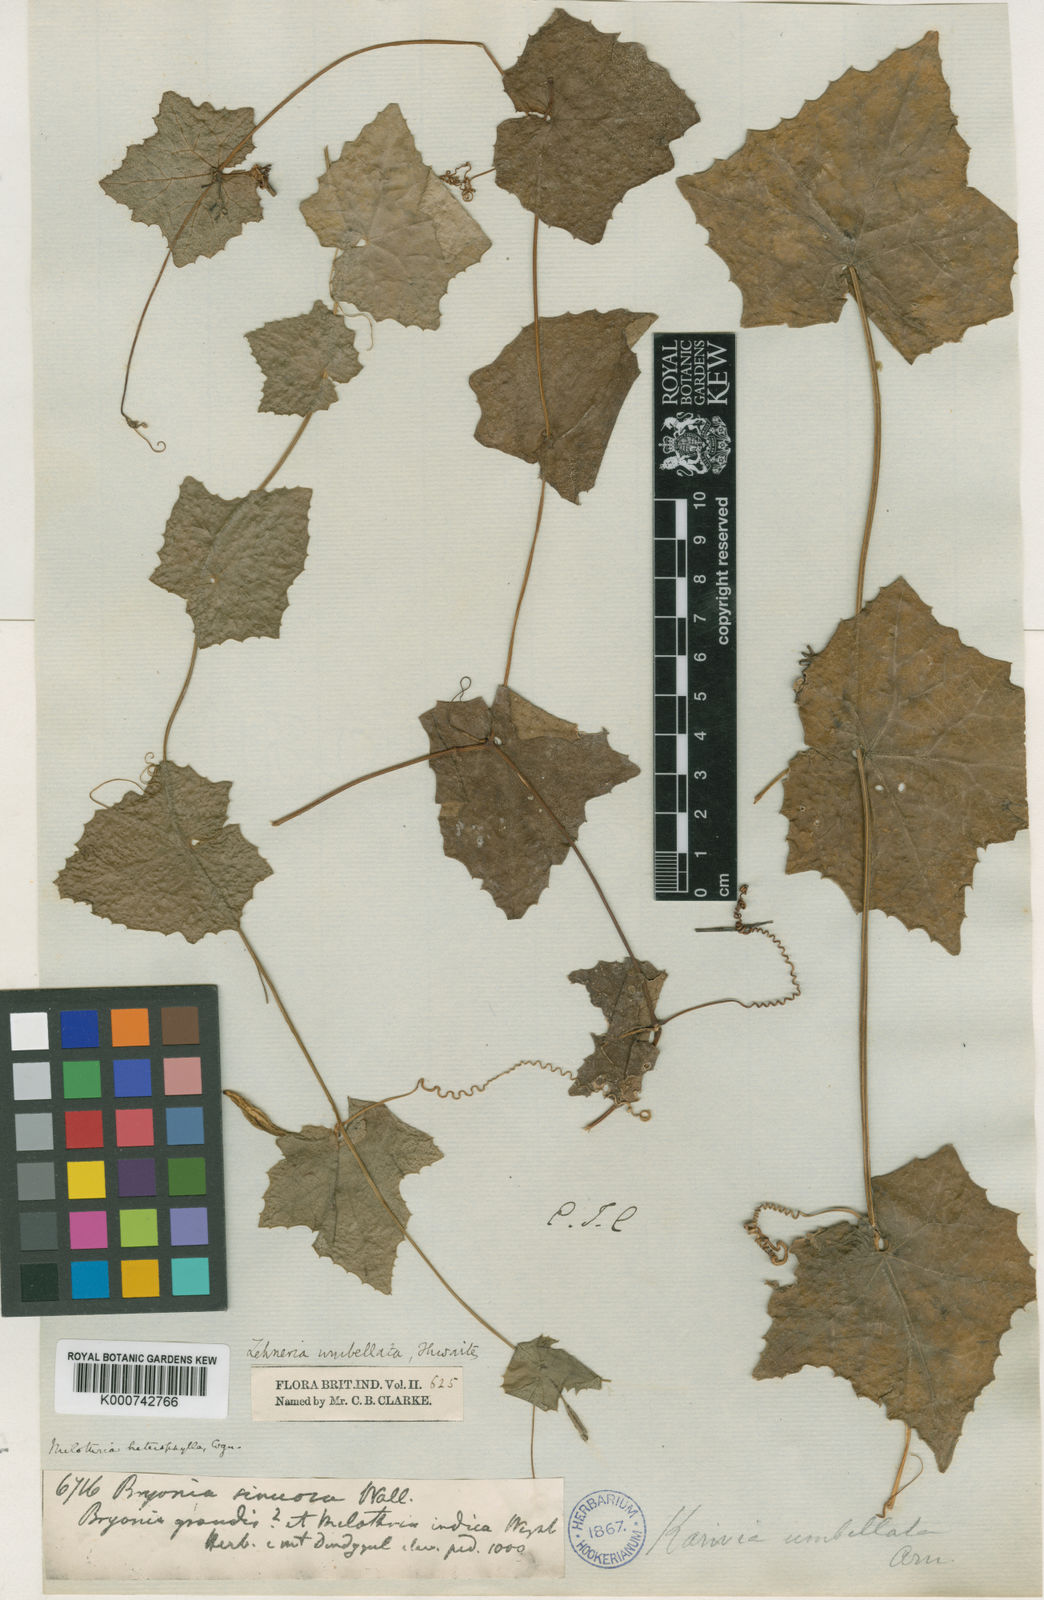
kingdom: Plantae
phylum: Tracheophyta
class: Magnoliopsida
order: Cucurbitales
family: Cucurbitaceae
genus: Solena
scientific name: Solena amplexicaulis
